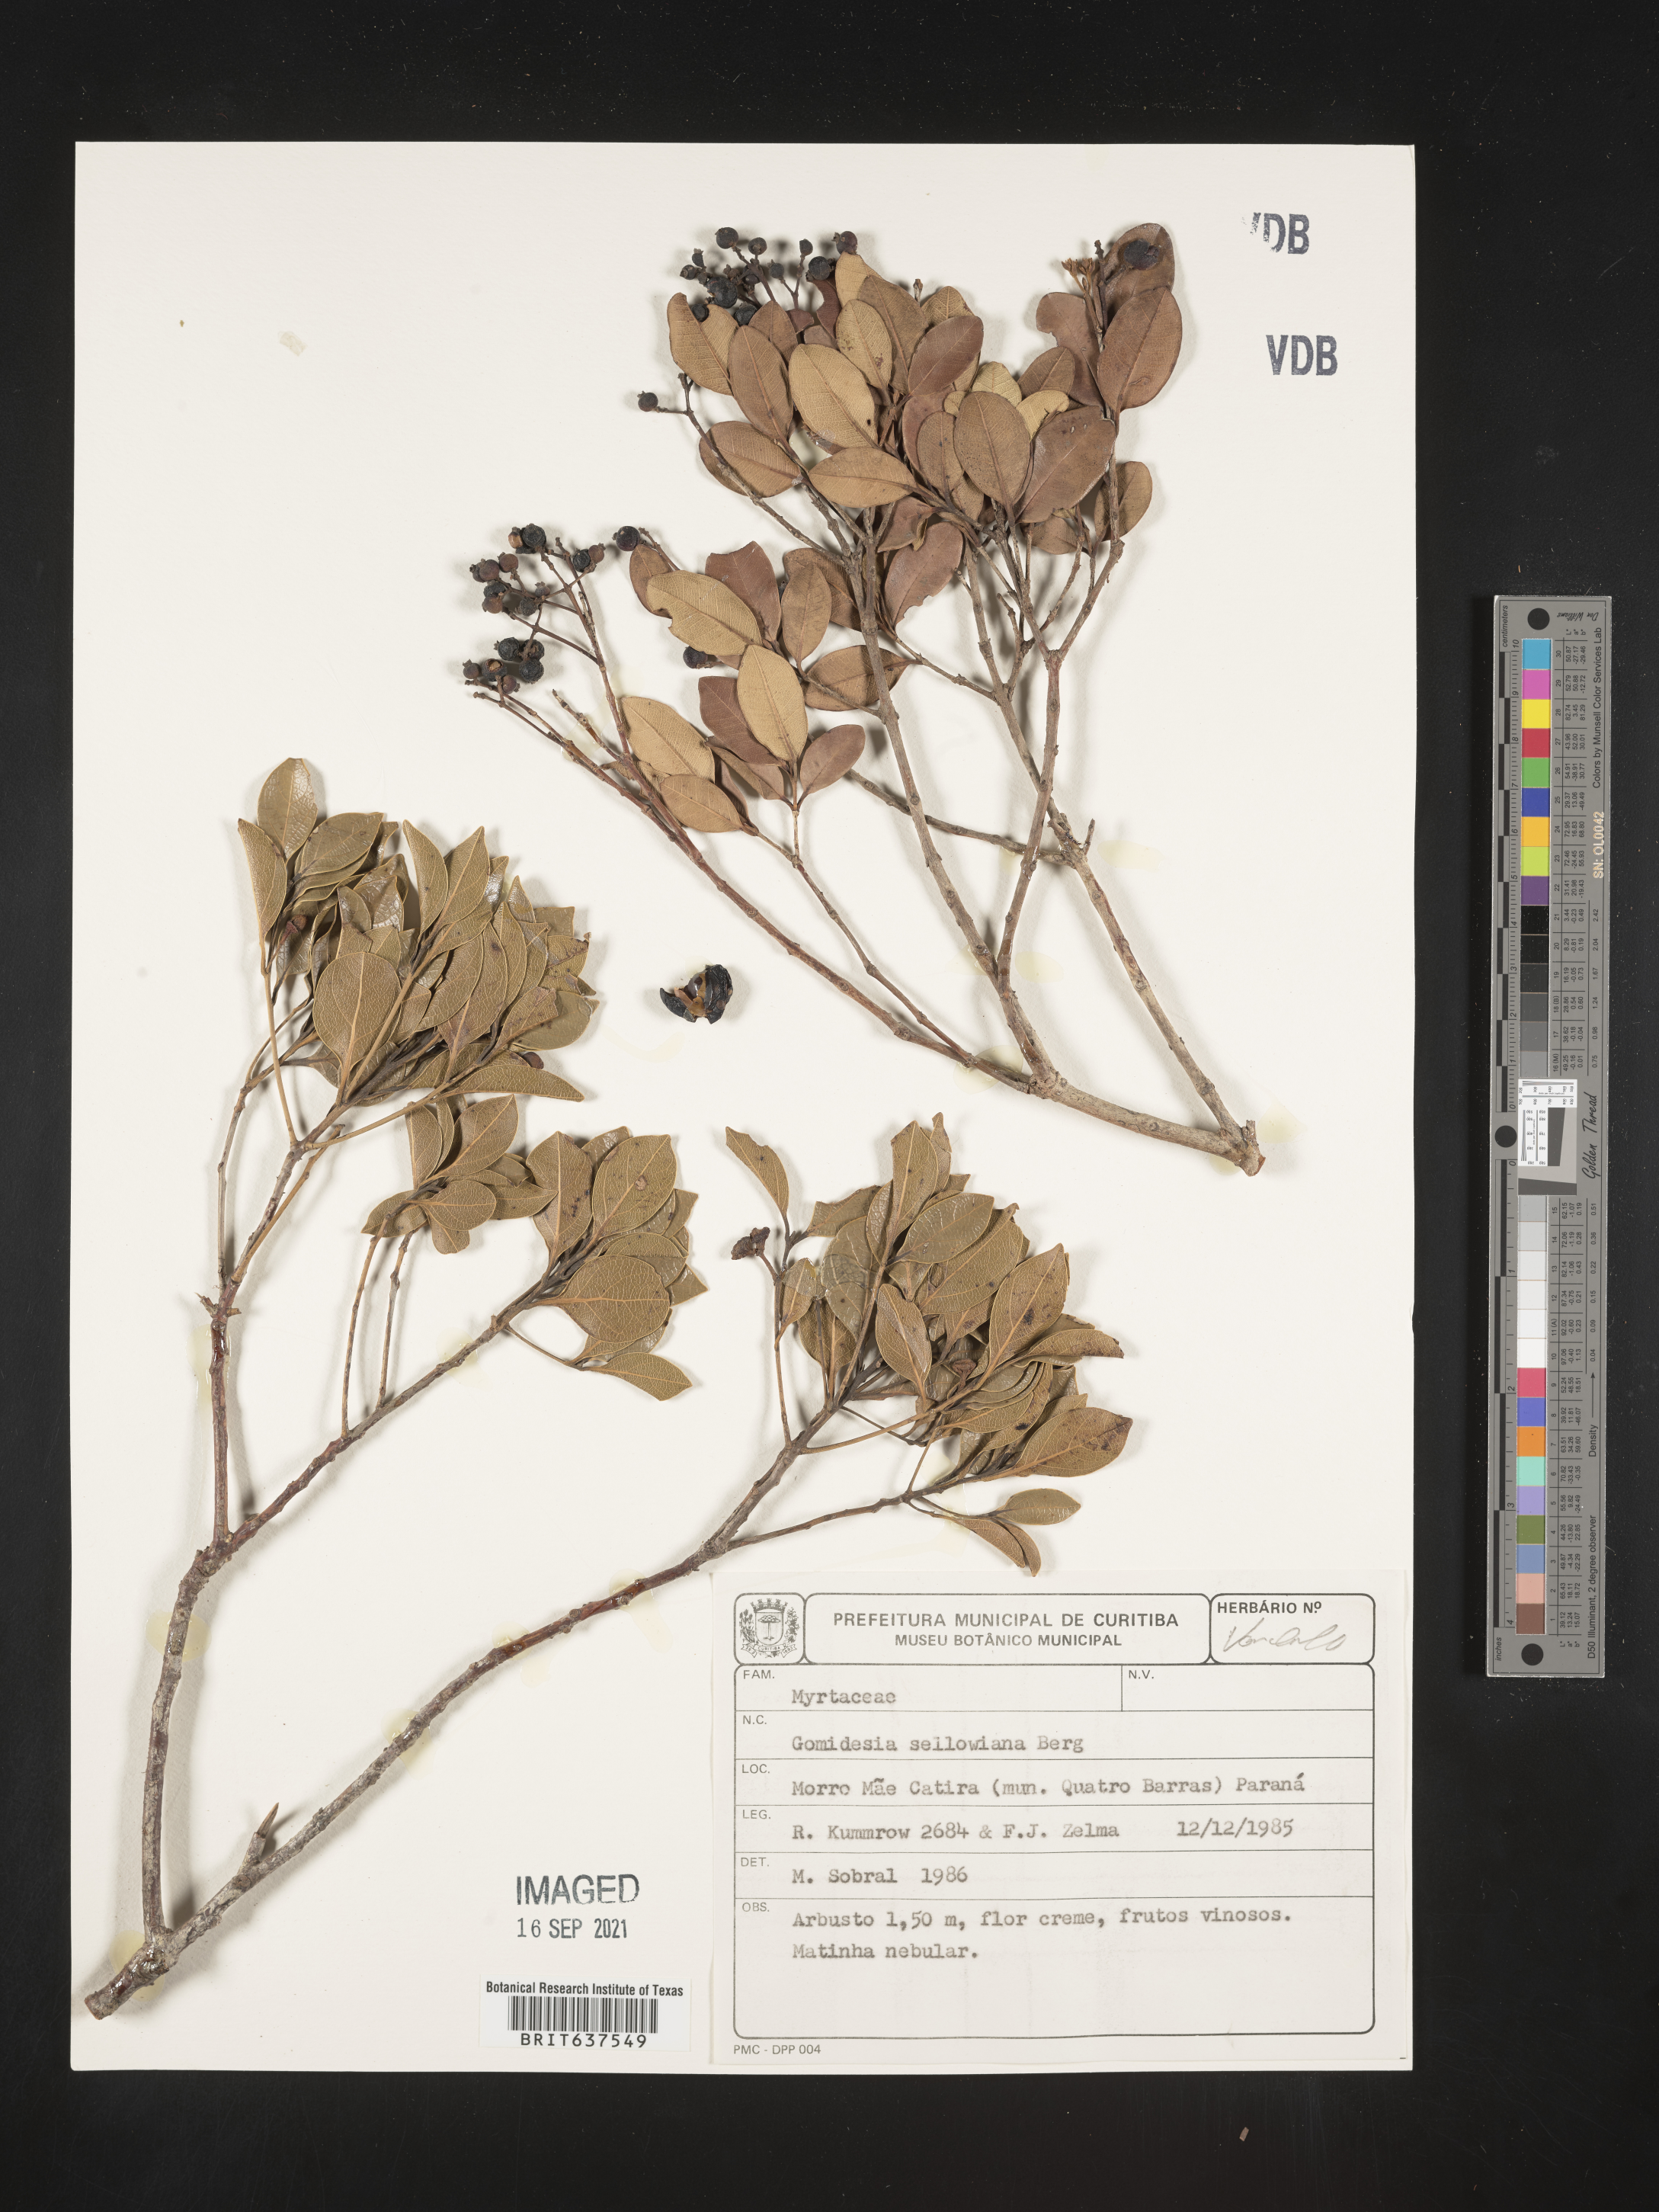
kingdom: Plantae
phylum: Tracheophyta
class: Magnoliopsida
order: Myrtales
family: Myrtaceae
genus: Myrcia
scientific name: Myrcia
